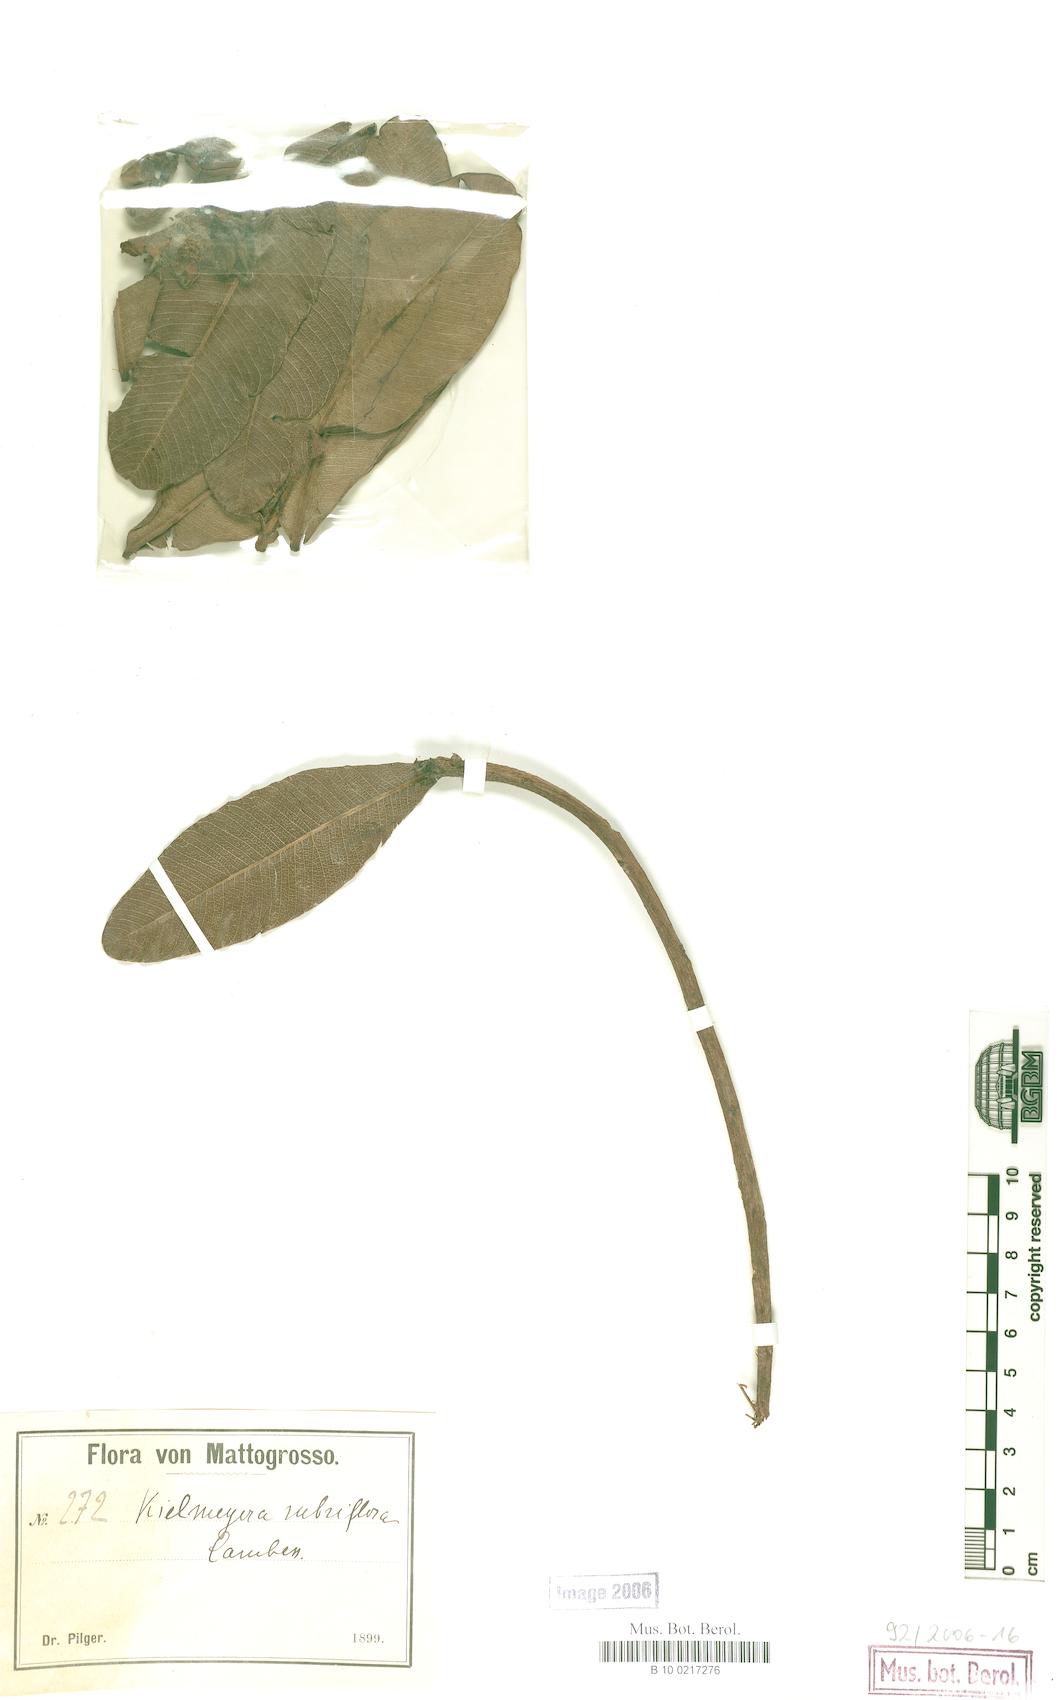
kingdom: Plantae
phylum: Tracheophyta
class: Magnoliopsida
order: Malpighiales
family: Calophyllaceae
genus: Kielmeyera
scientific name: Kielmeyera rubriflora
